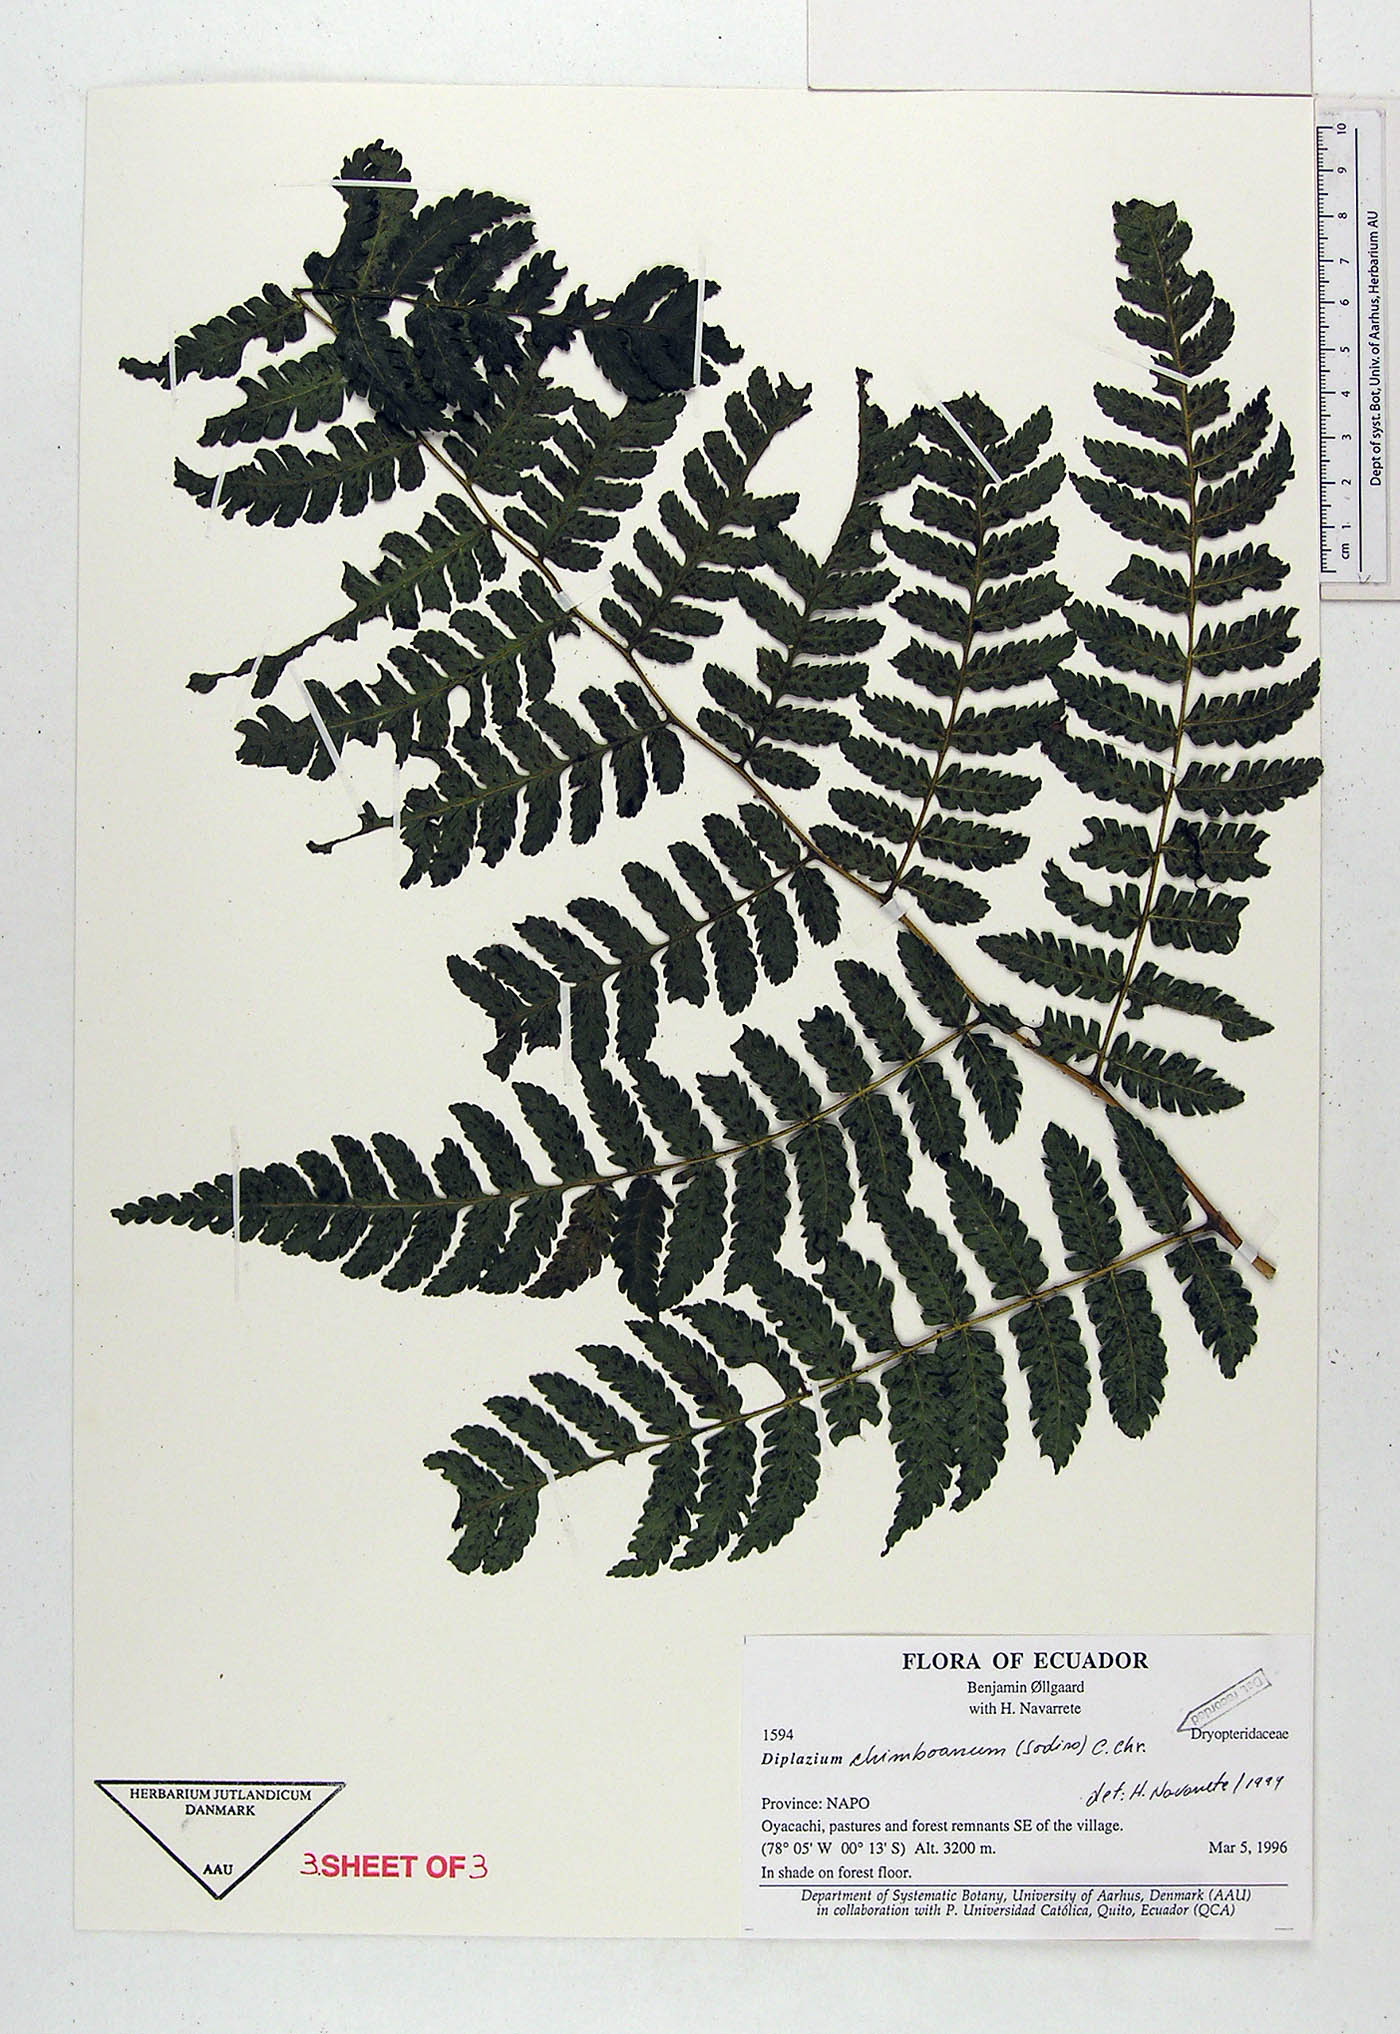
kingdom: Plantae
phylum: Tracheophyta
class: Polypodiopsida
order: Polypodiales
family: Athyriaceae
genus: Diplazium
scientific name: Diplazium chimboanum
